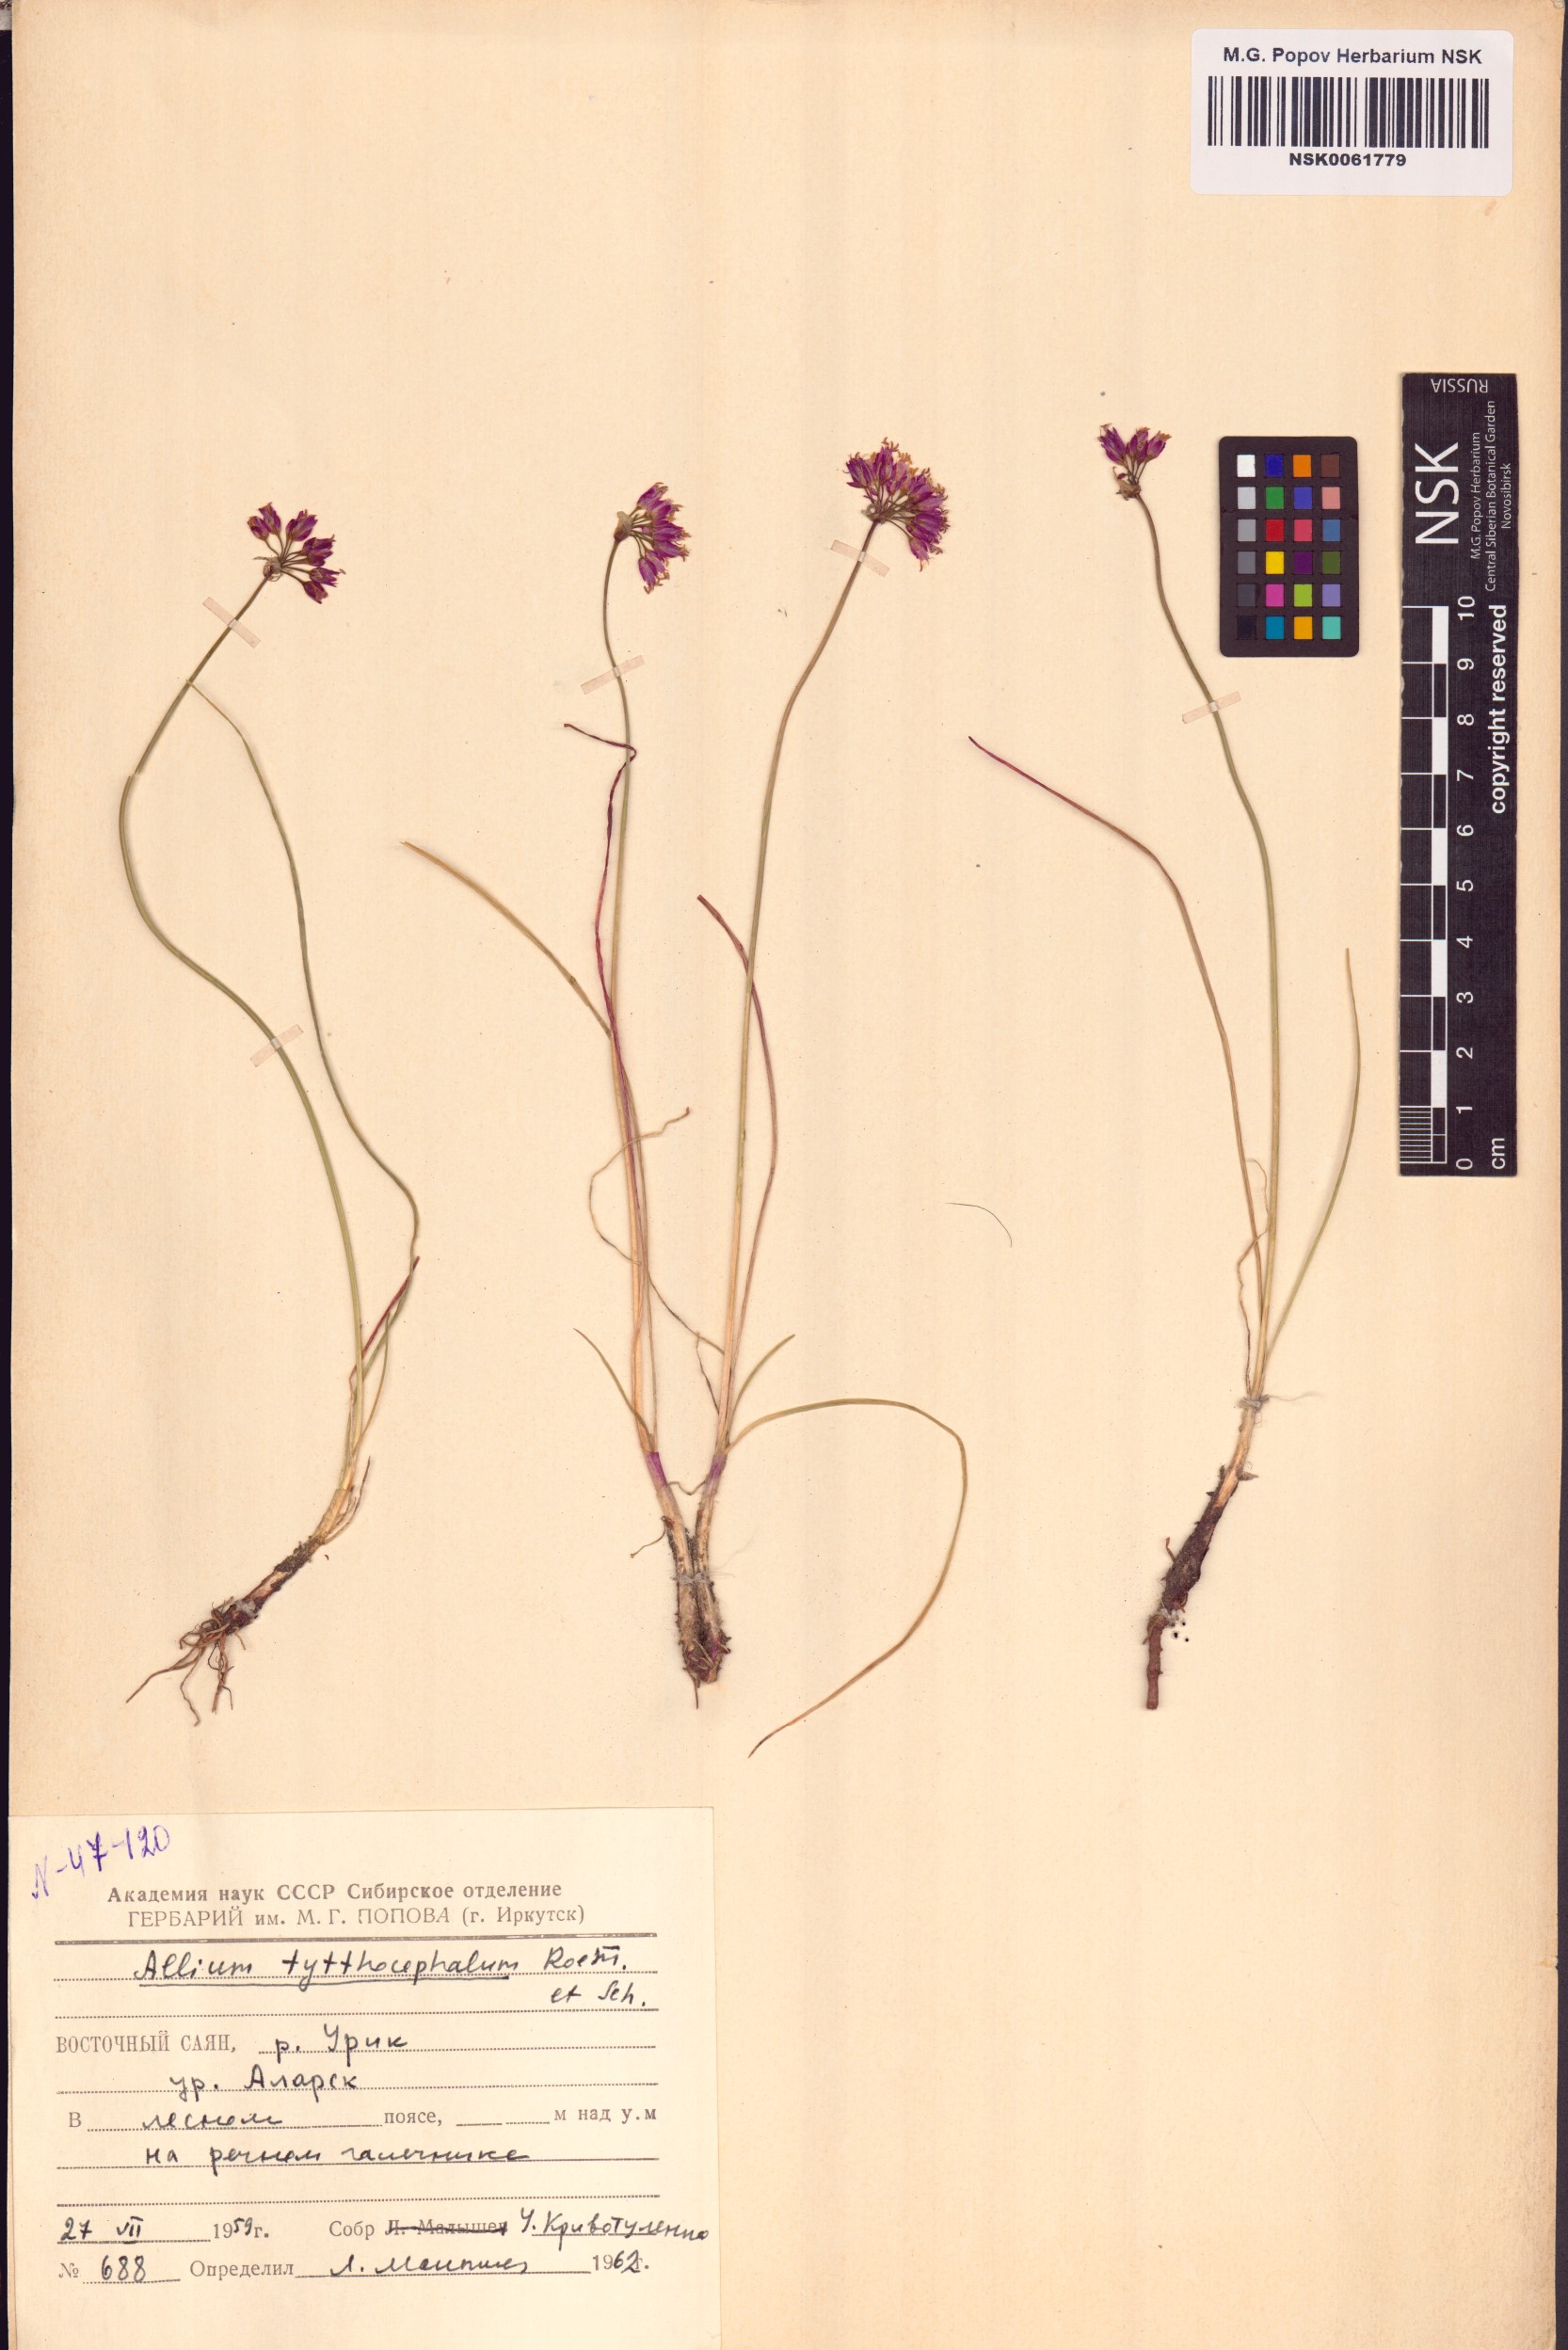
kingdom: Plantae
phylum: Tracheophyta
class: Liliopsida
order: Asparagales
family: Amaryllidaceae
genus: Allium
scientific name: Allium tytthocephalum
